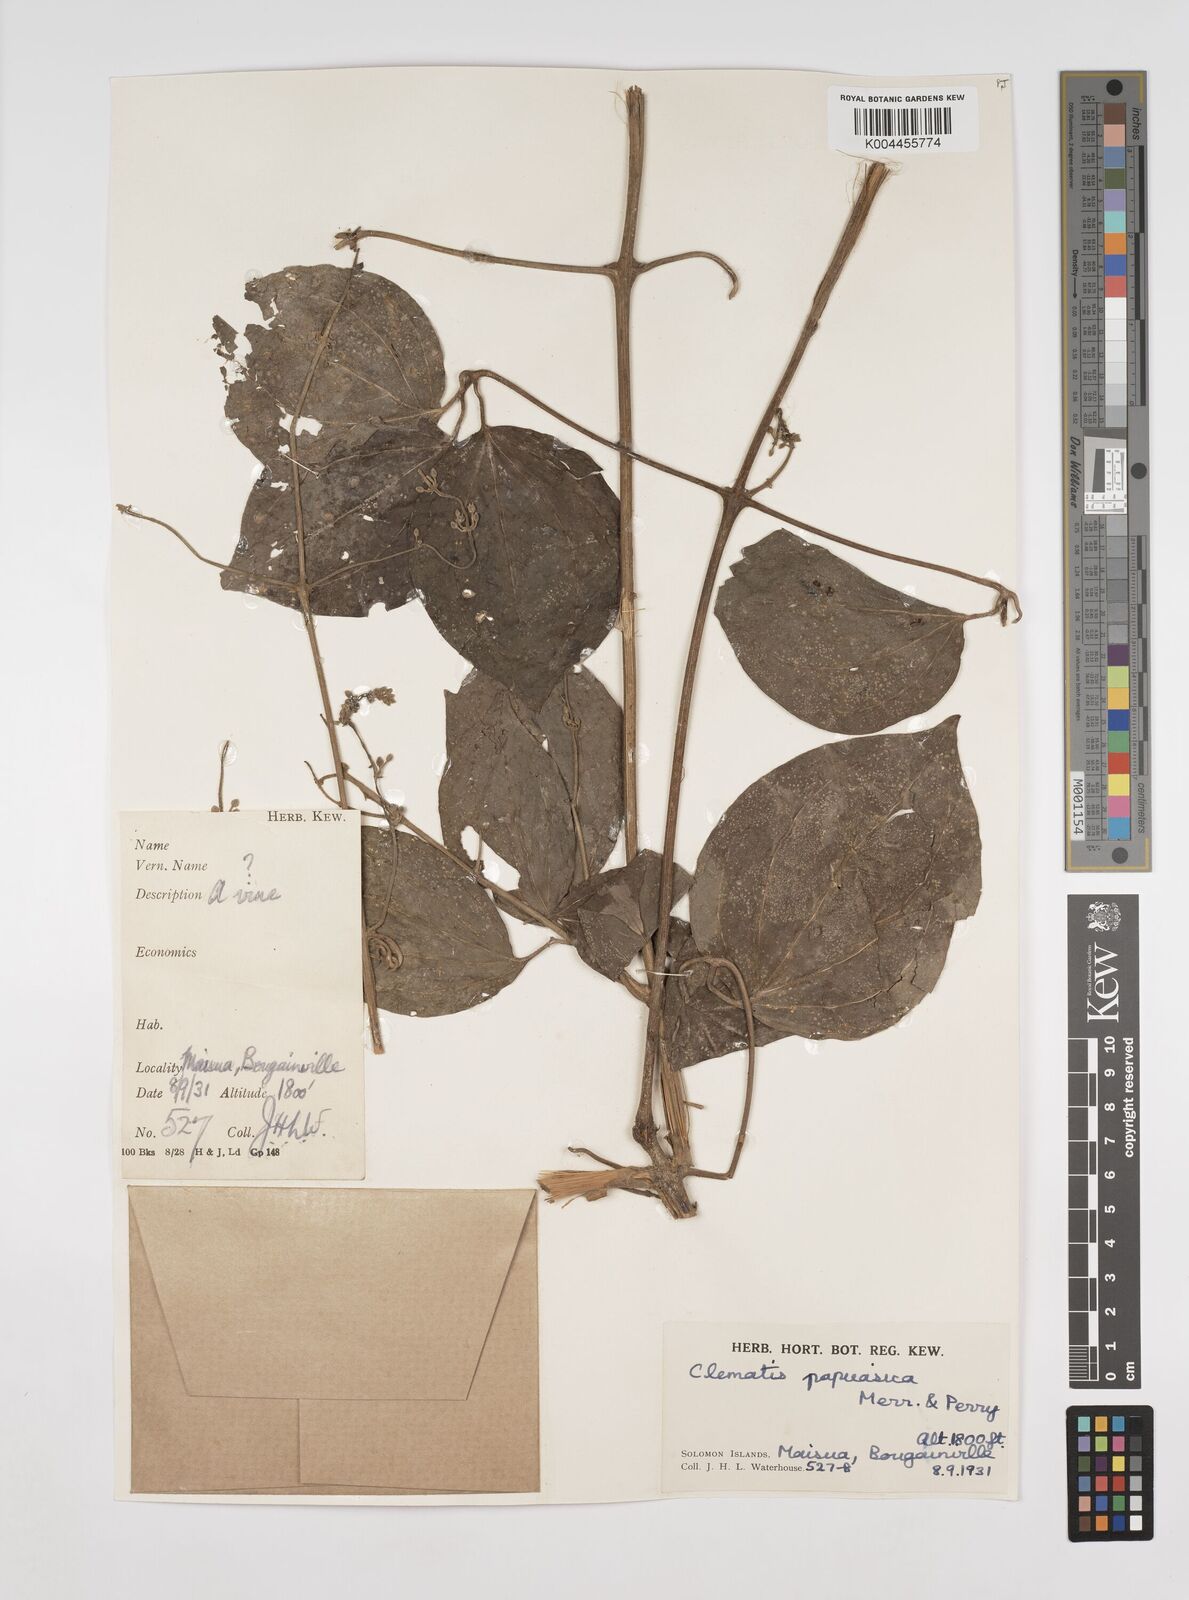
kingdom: Plantae
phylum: Tracheophyta
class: Magnoliopsida
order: Ranunculales
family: Ranunculaceae
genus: Clematis
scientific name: Clematis papuasica
